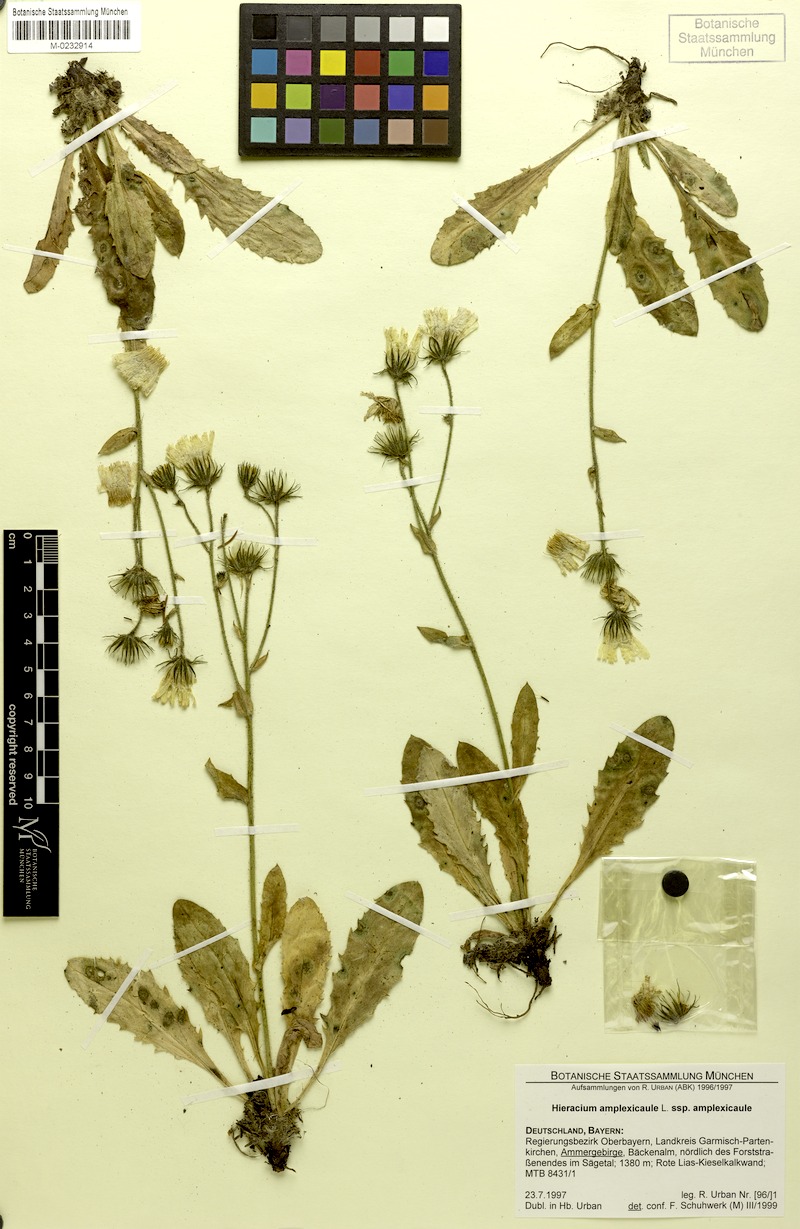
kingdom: Plantae
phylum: Tracheophyta
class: Magnoliopsida
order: Asterales
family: Asteraceae
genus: Hieracium
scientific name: Hieracium amplexicaule
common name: Sticky hawkweed
